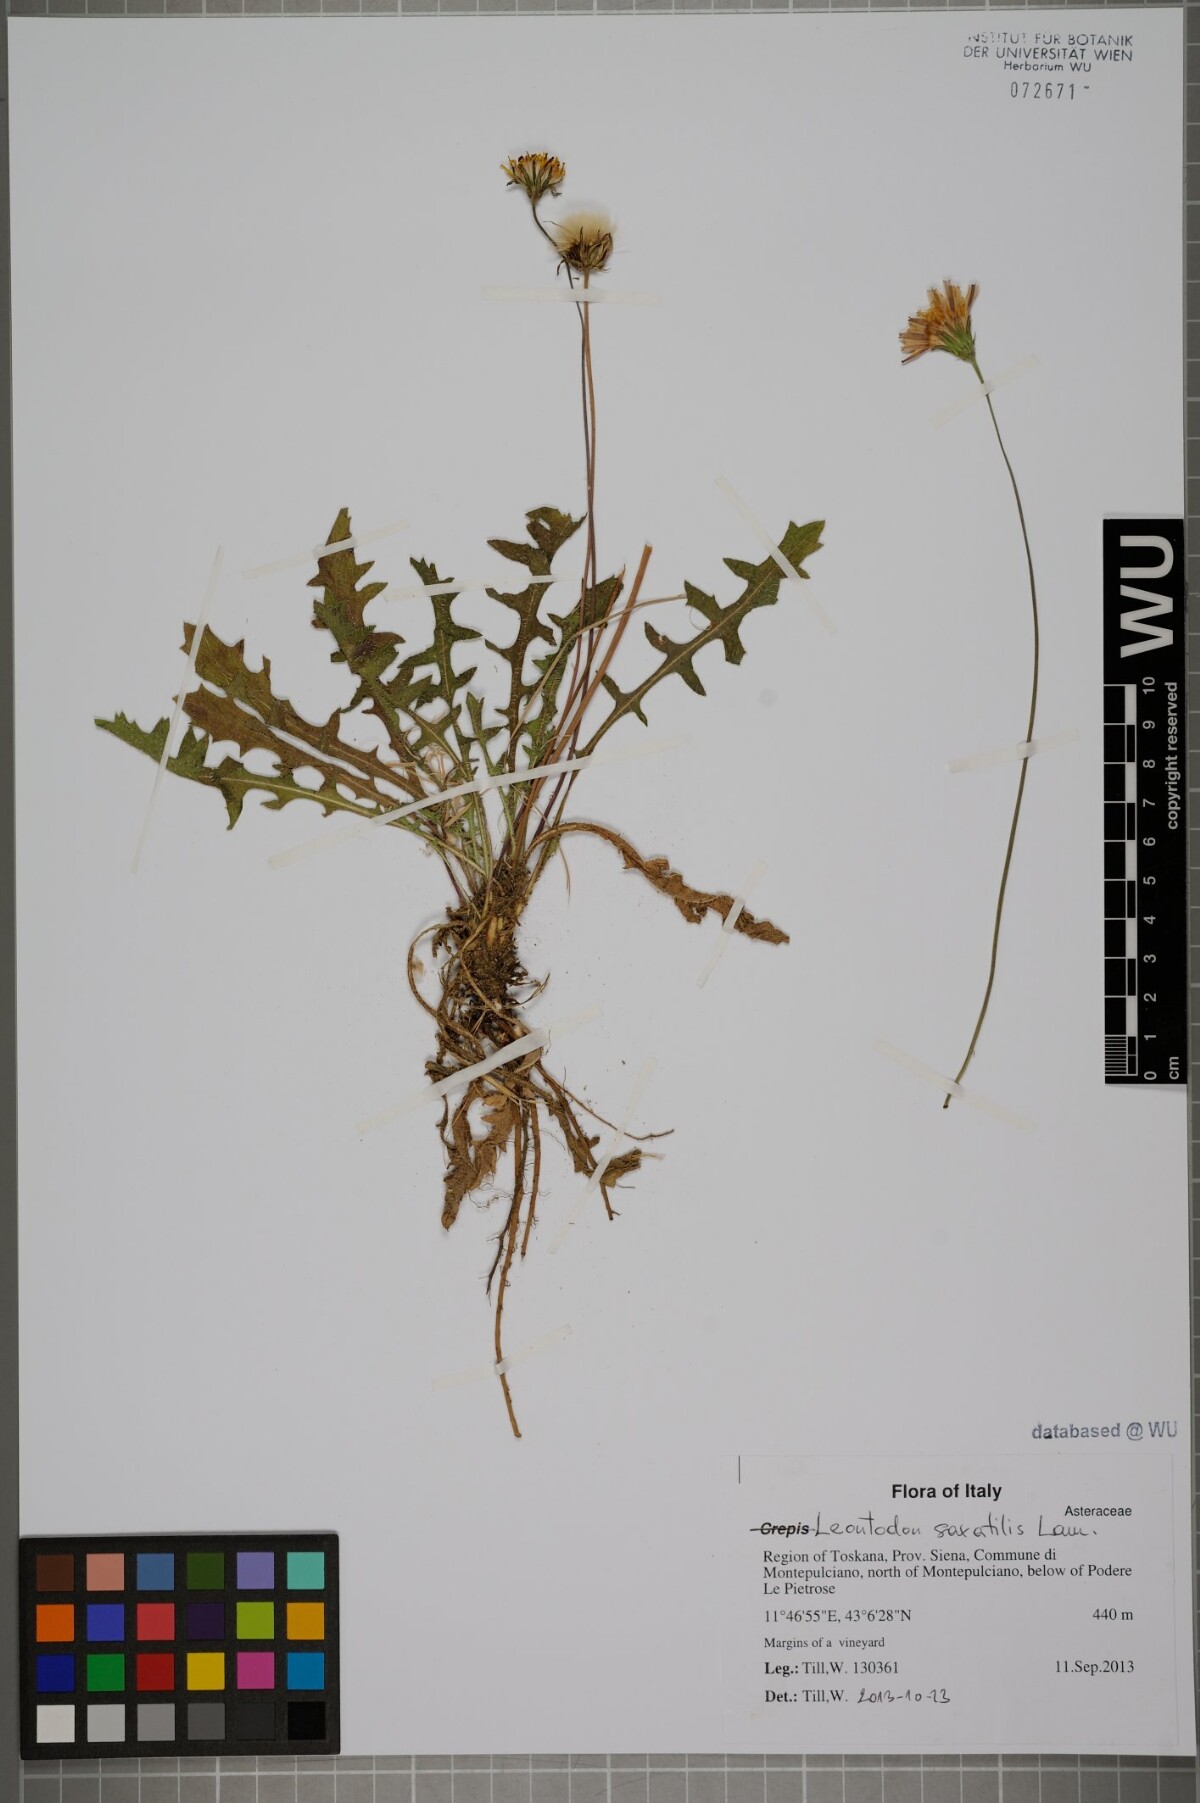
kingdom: Plantae
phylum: Tracheophyta
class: Magnoliopsida
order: Asterales
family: Asteraceae
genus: Thrincia
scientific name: Thrincia saxatilis
